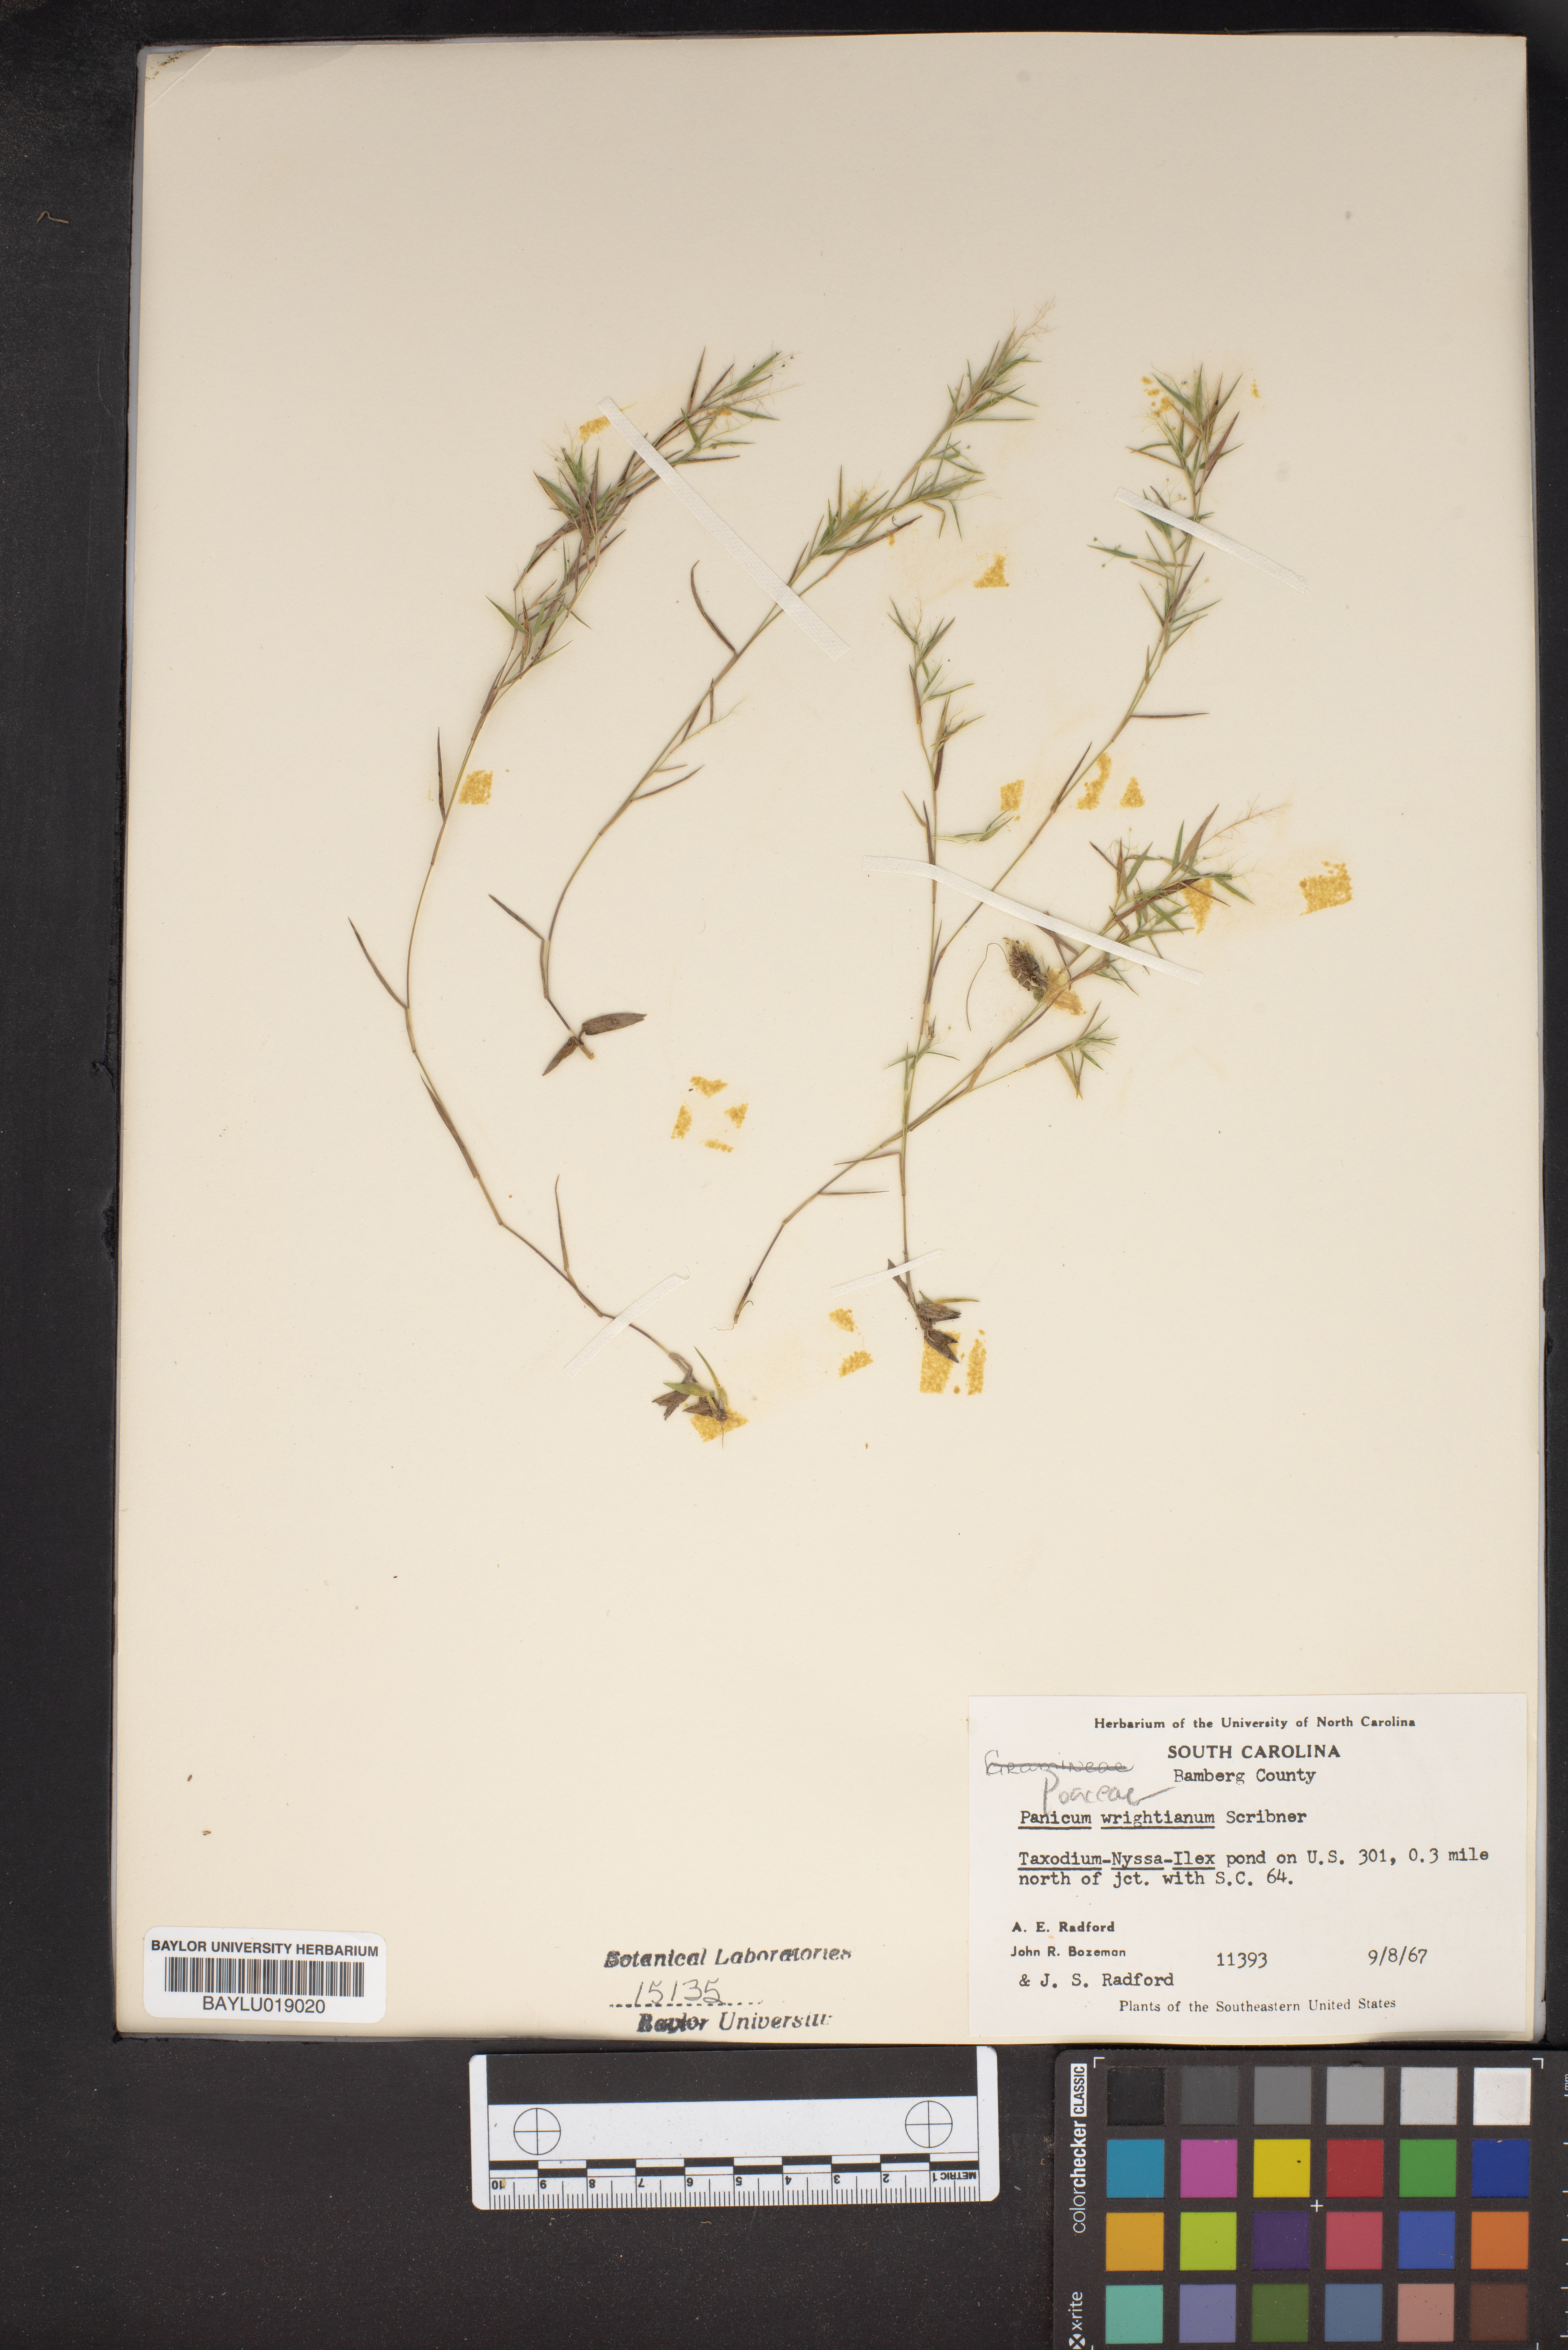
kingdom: Plantae
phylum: Tracheophyta
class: Liliopsida
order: Poales
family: Poaceae
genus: Dichanthelium
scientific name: Dichanthelium wrightianum
